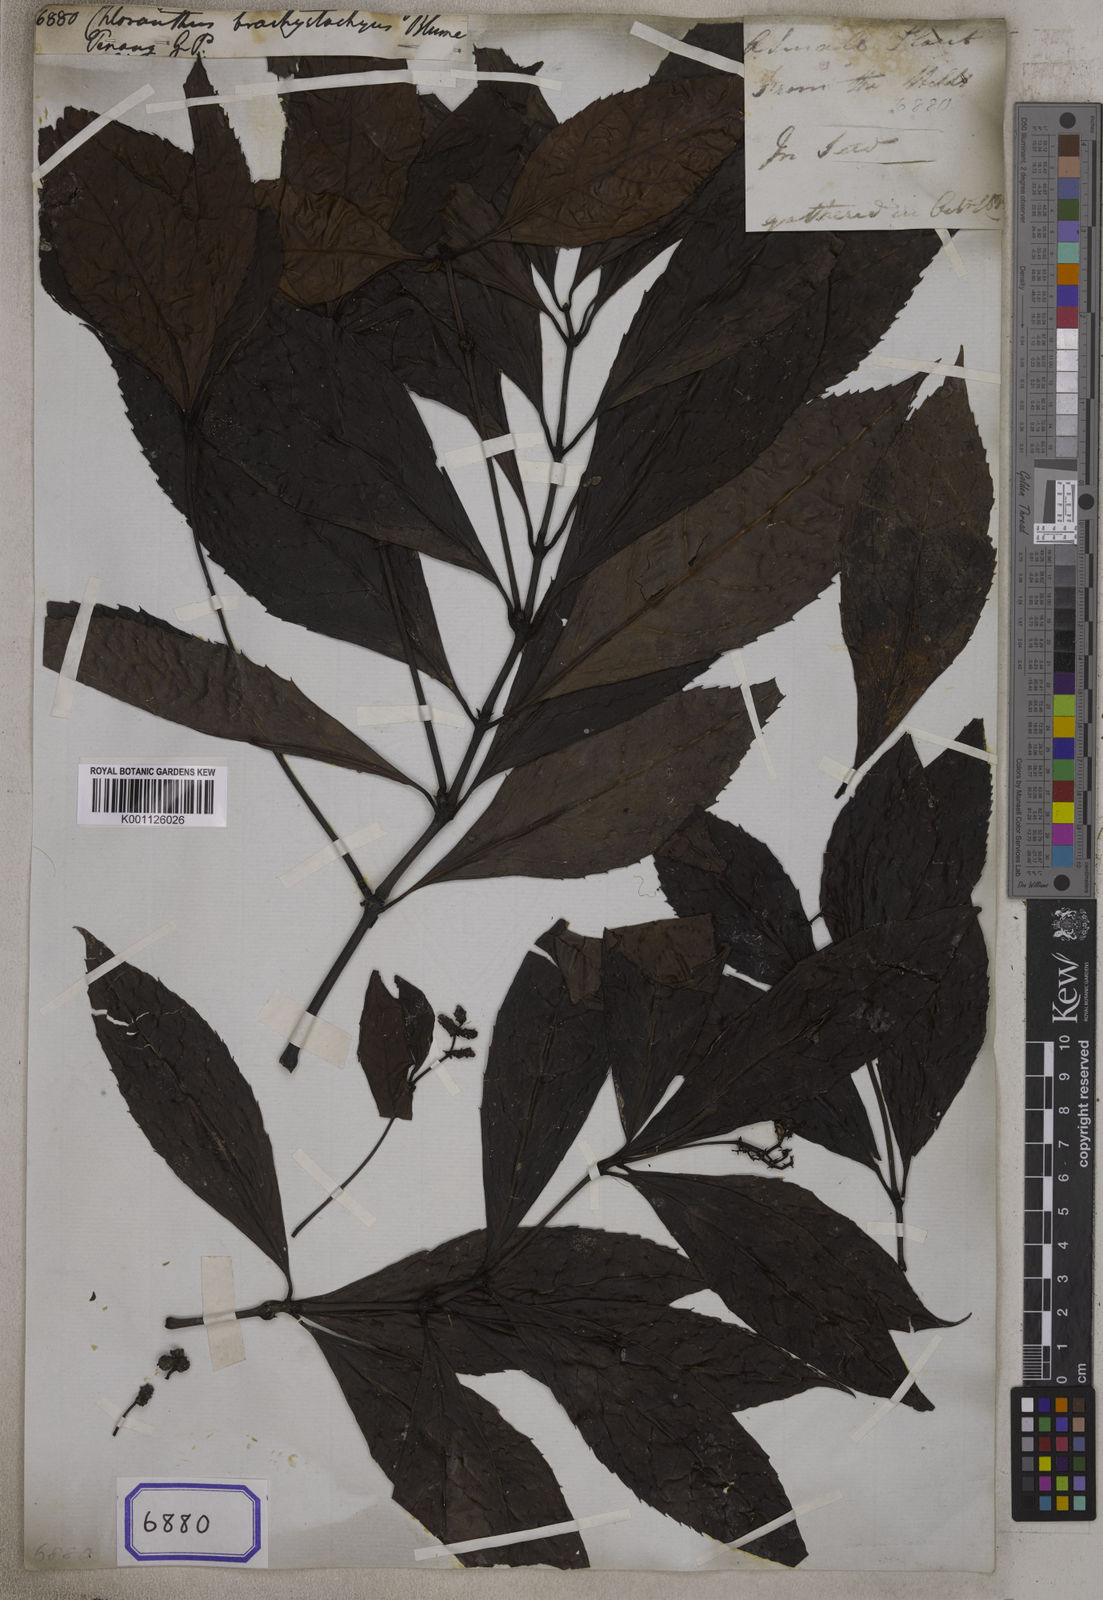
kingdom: Plantae
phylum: Tracheophyta
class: Magnoliopsida
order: Chloranthales
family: Chloranthaceae
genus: Sarcandra
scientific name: Sarcandra glabra
